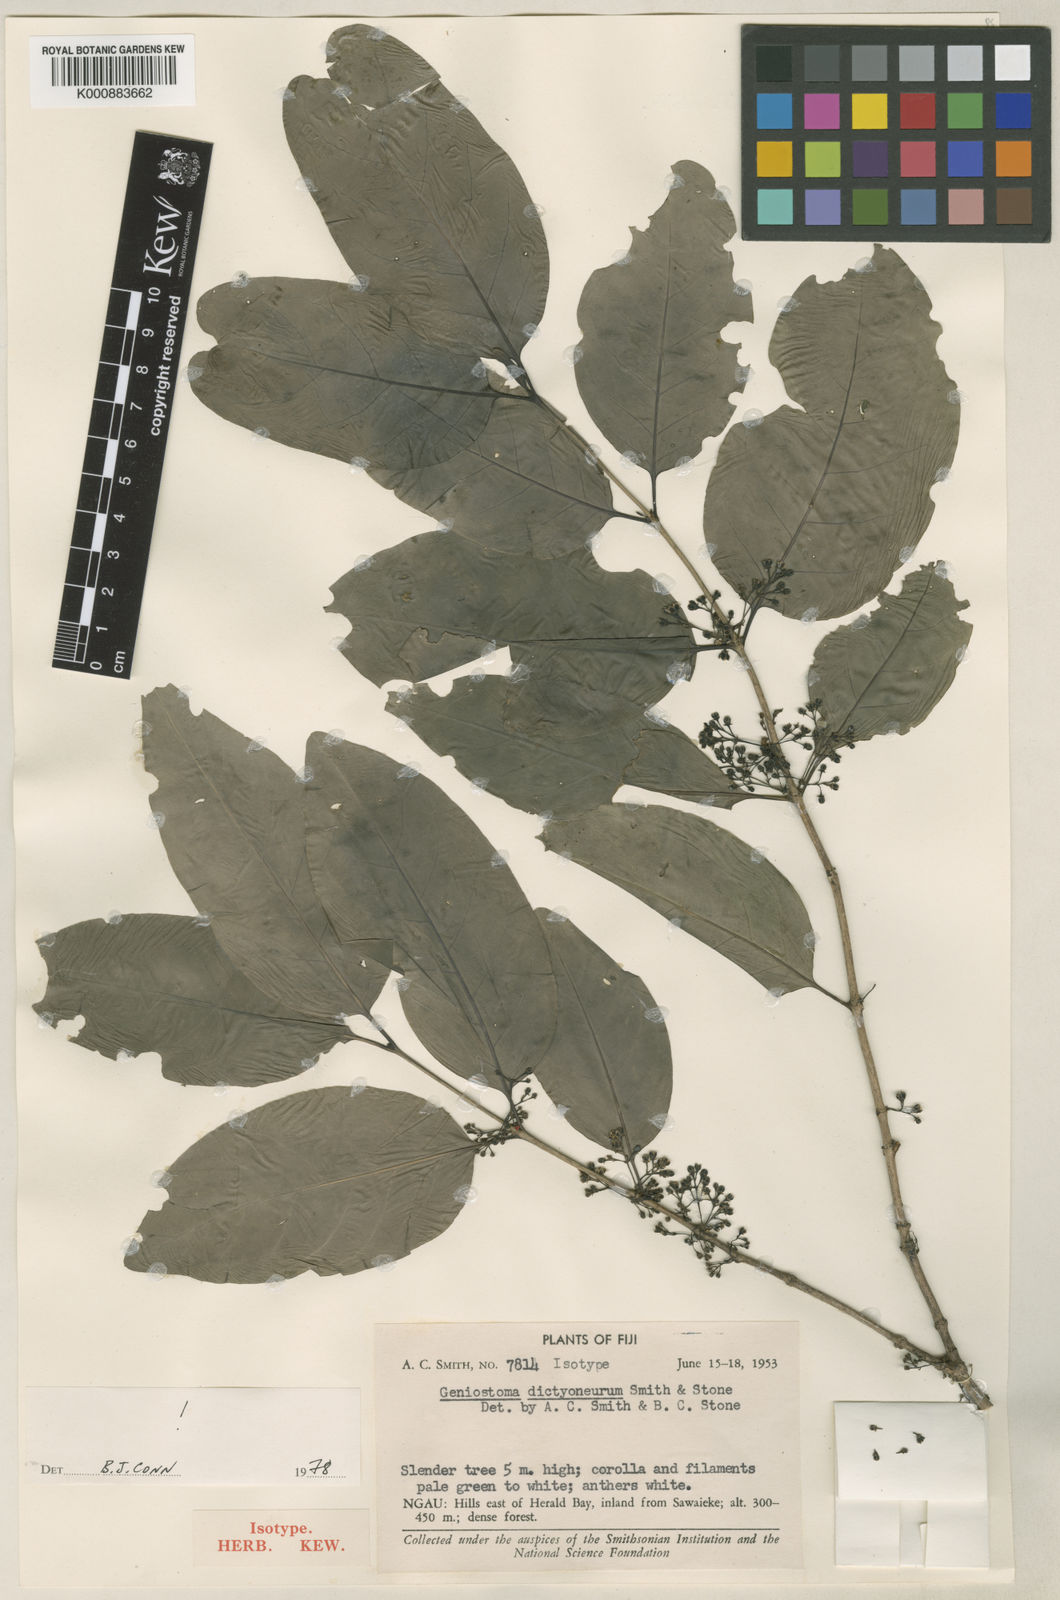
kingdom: Plantae
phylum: Tracheophyta
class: Magnoliopsida
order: Gentianales
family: Loganiaceae
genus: Geniostoma
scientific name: Geniostoma rupestre
